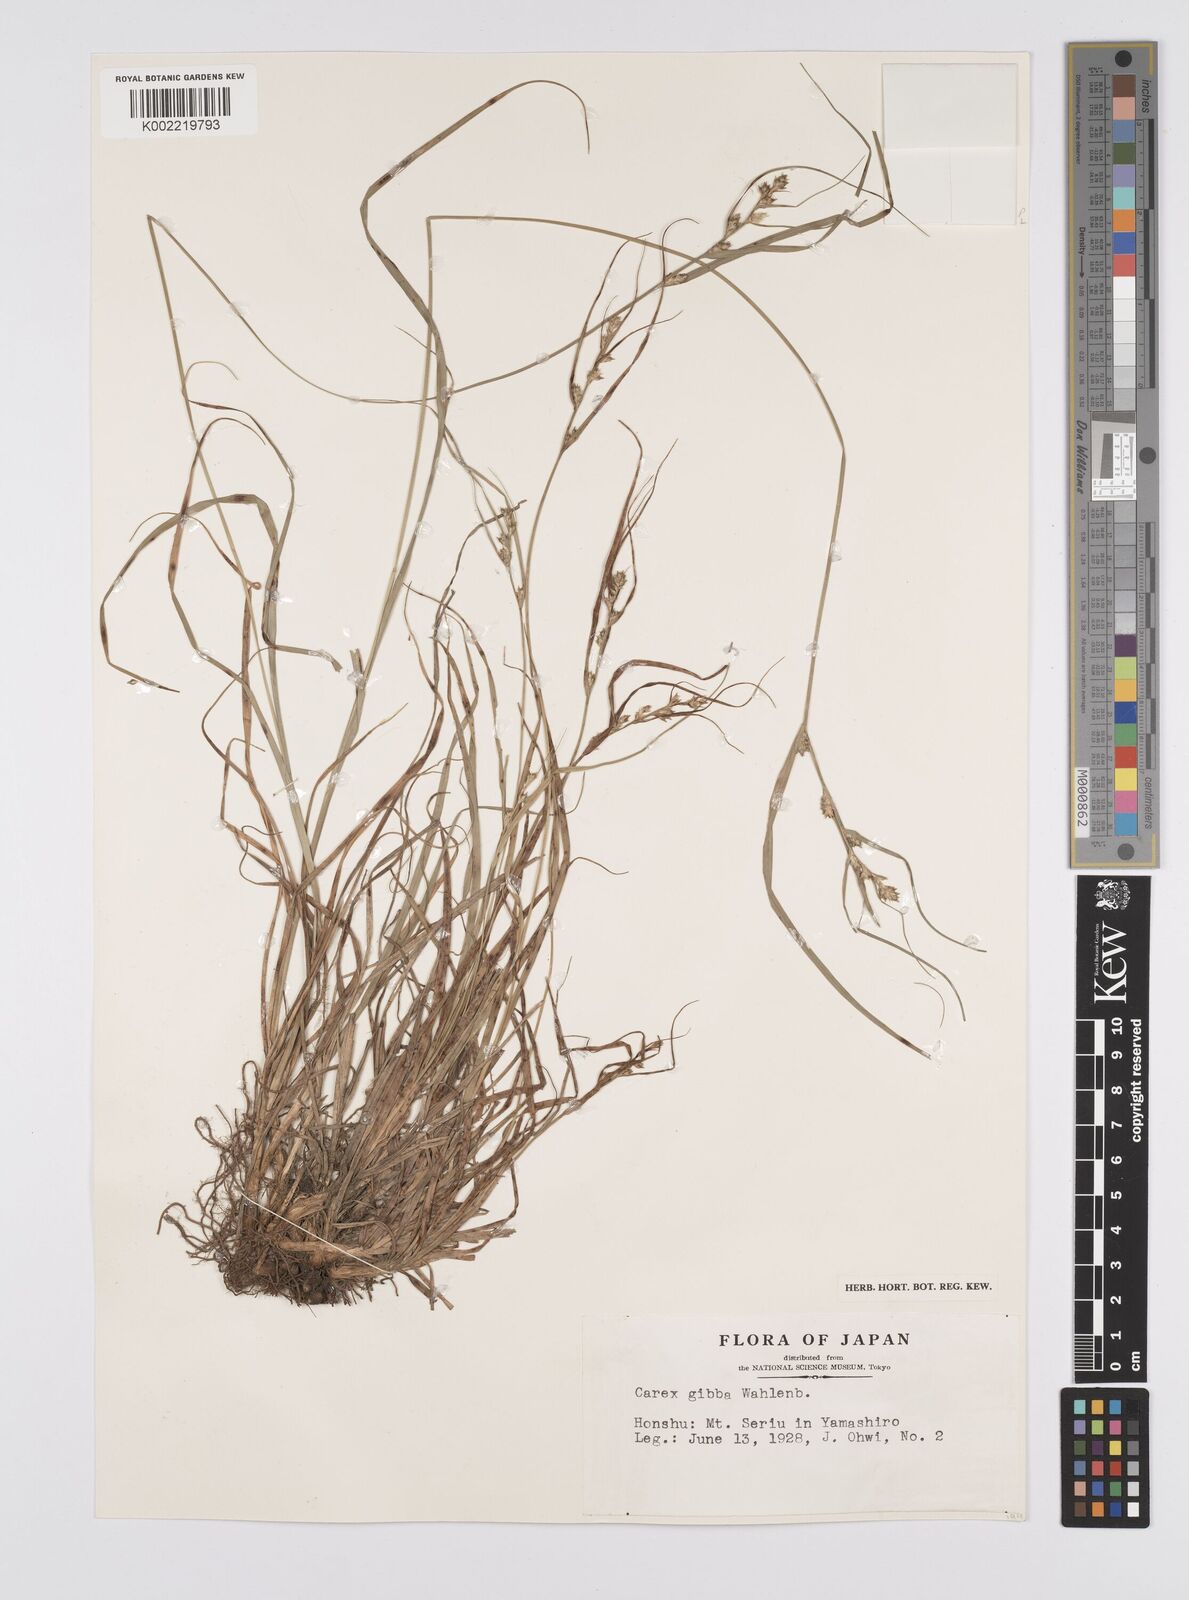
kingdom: Plantae
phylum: Tracheophyta
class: Liliopsida
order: Poales
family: Cyperaceae
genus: Carex
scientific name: Carex gibba
